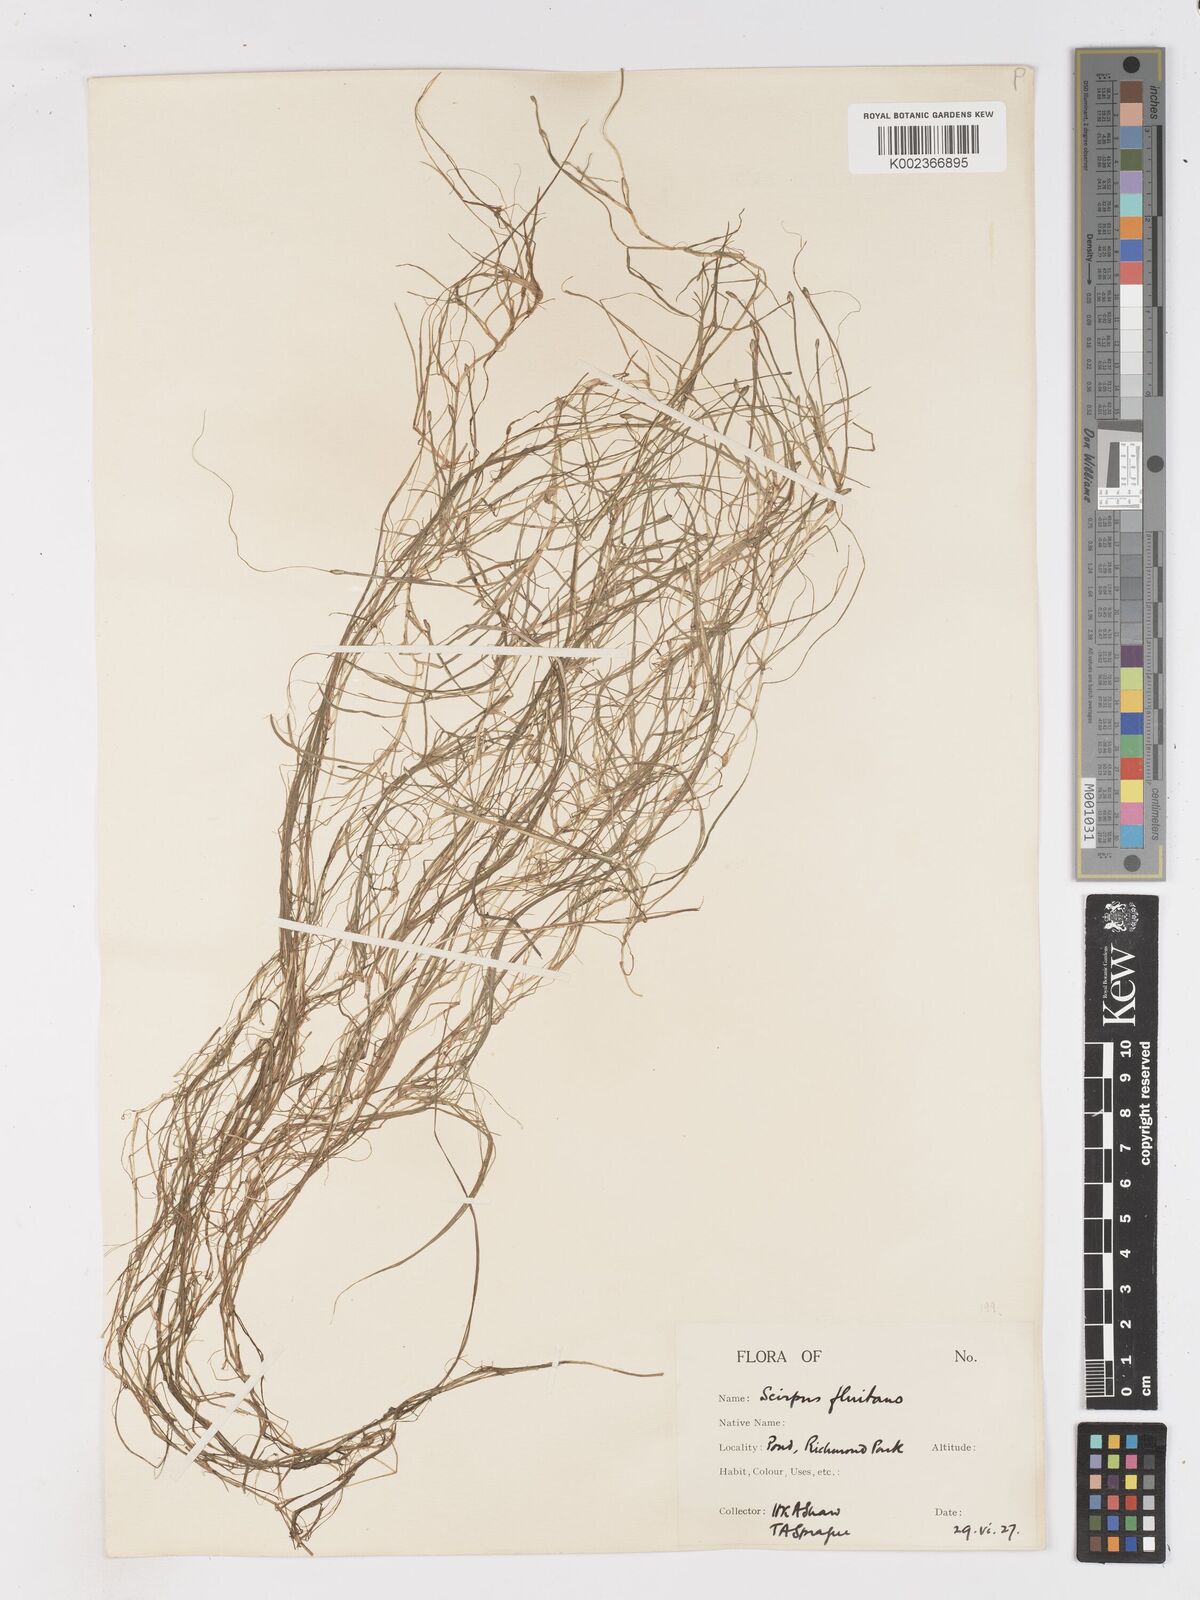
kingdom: Plantae
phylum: Tracheophyta
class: Liliopsida
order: Poales
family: Cyperaceae
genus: Isolepis
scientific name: Isolepis fluitans
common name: Floating club-rush
